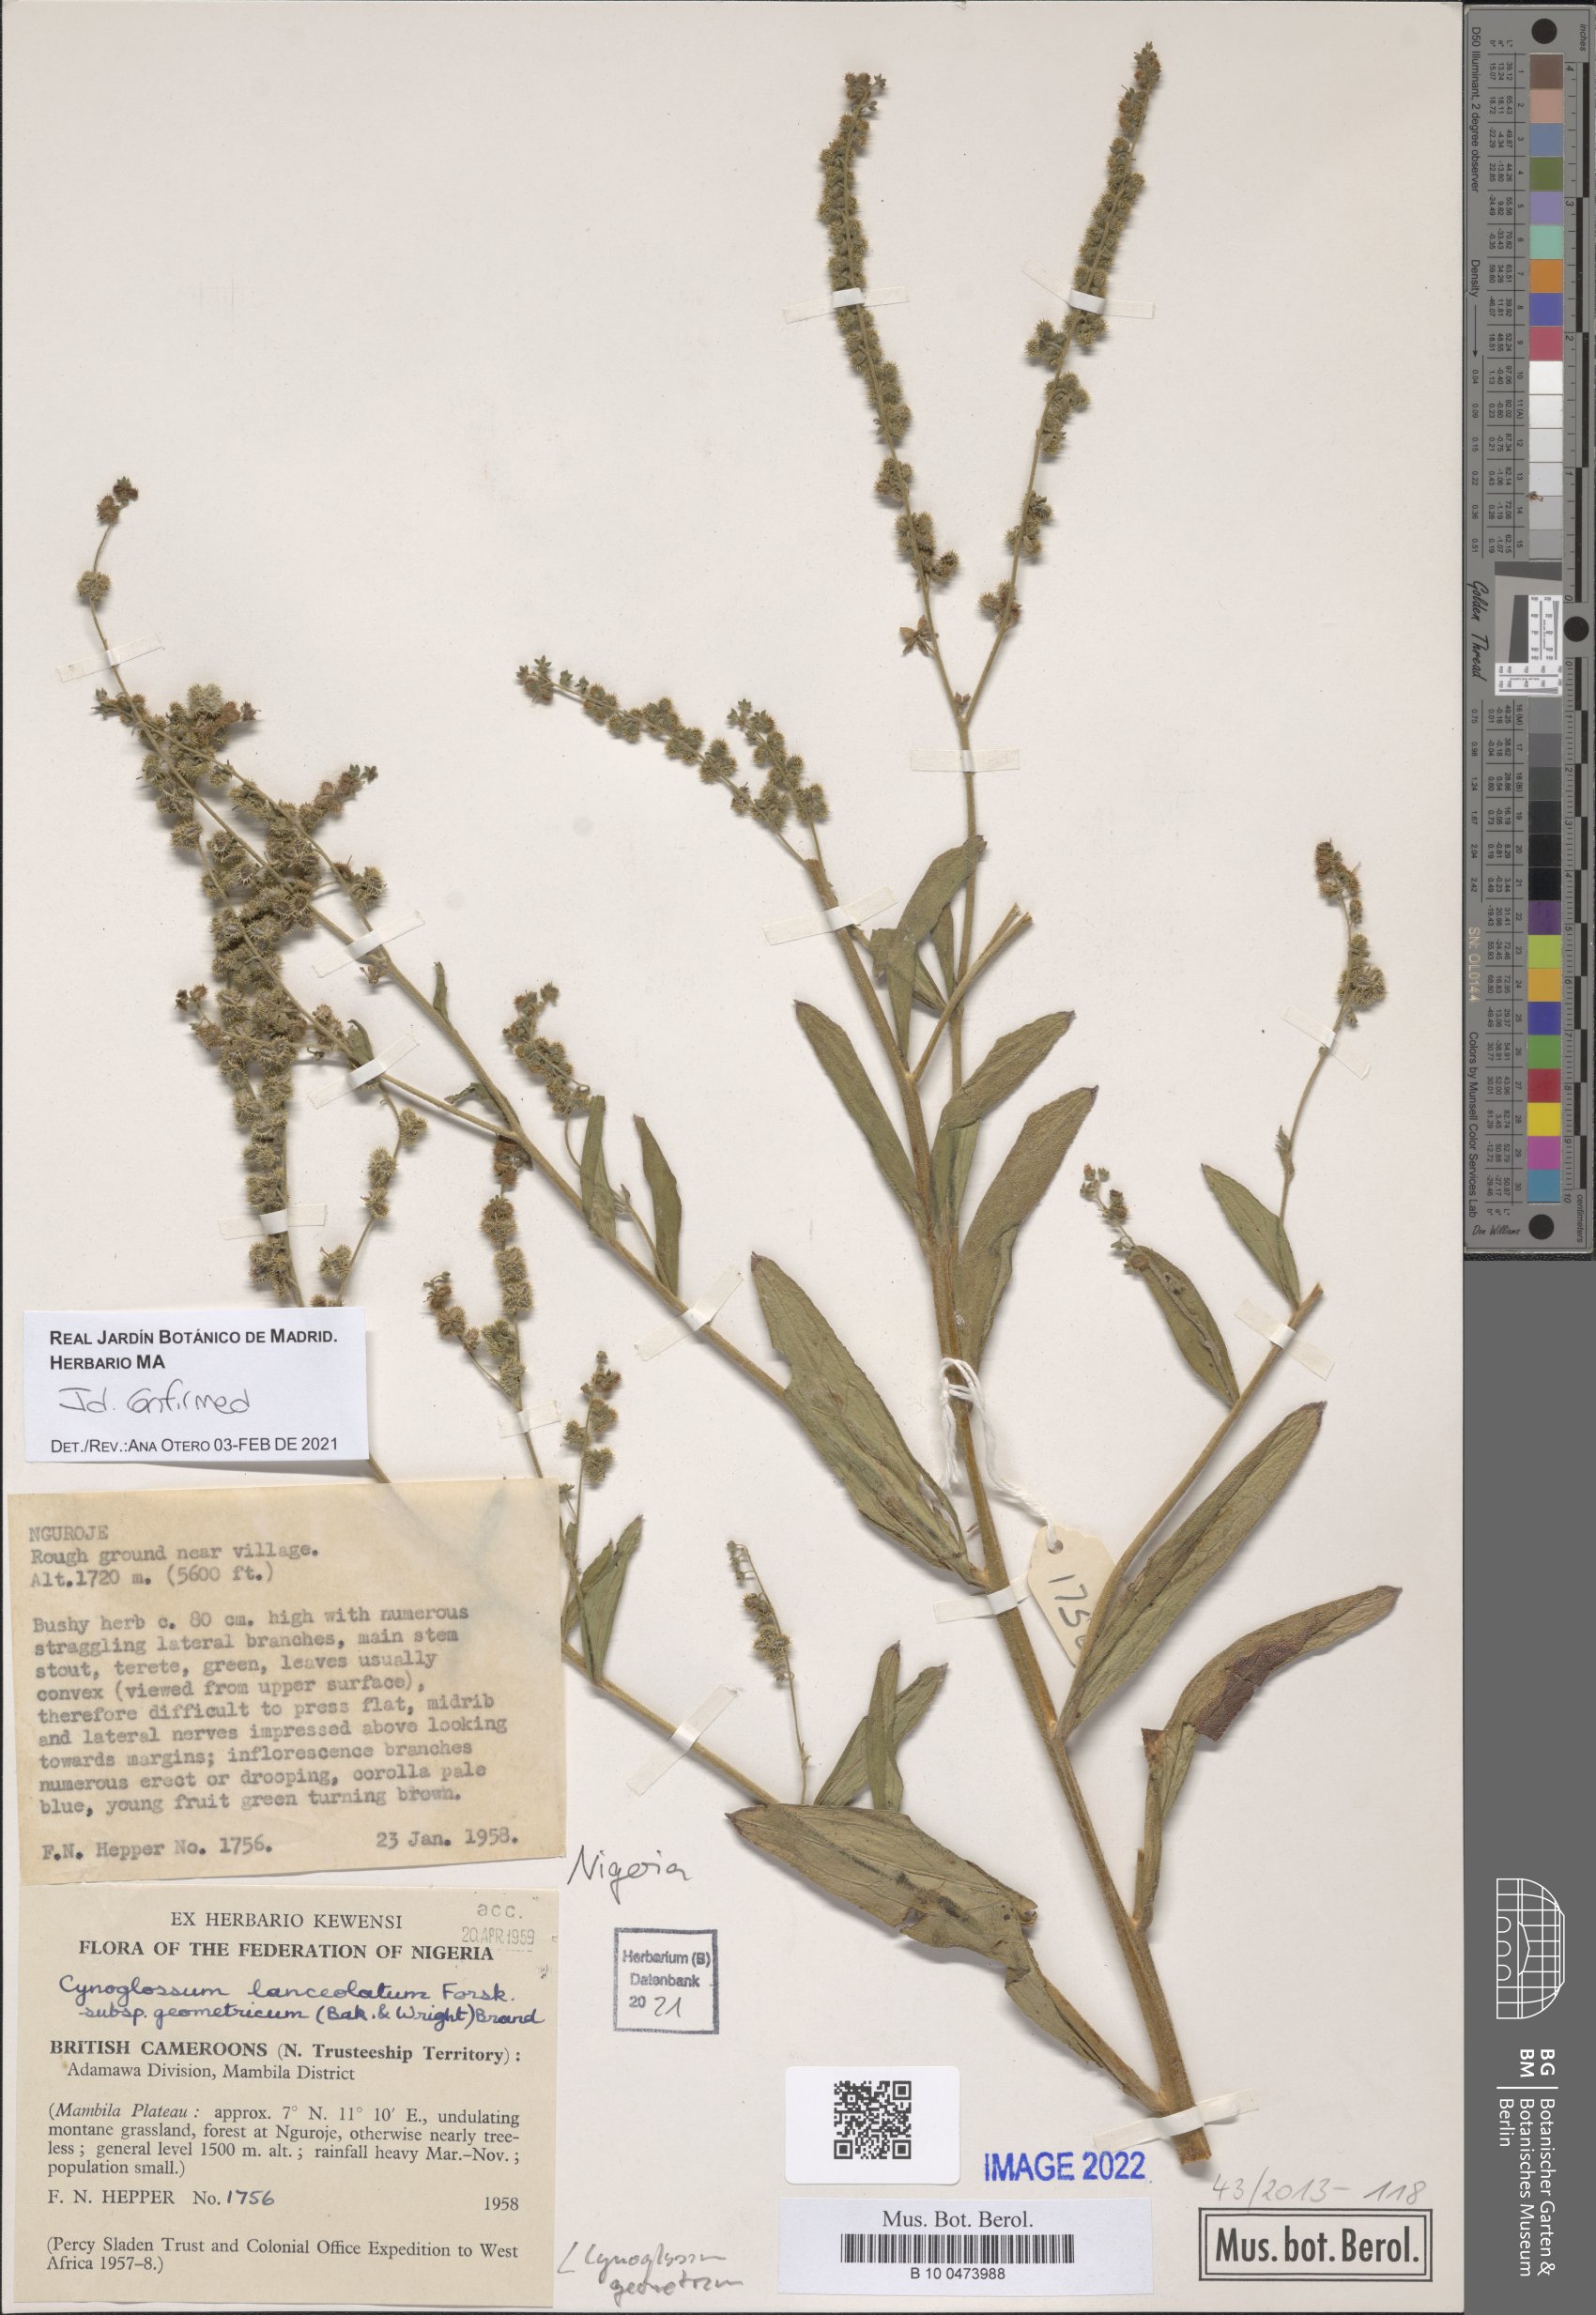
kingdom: Plantae
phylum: Tracheophyta
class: Magnoliopsida
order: Boraginales
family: Boraginaceae
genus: Paracynoglossum
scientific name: Paracynoglossum geometricum
